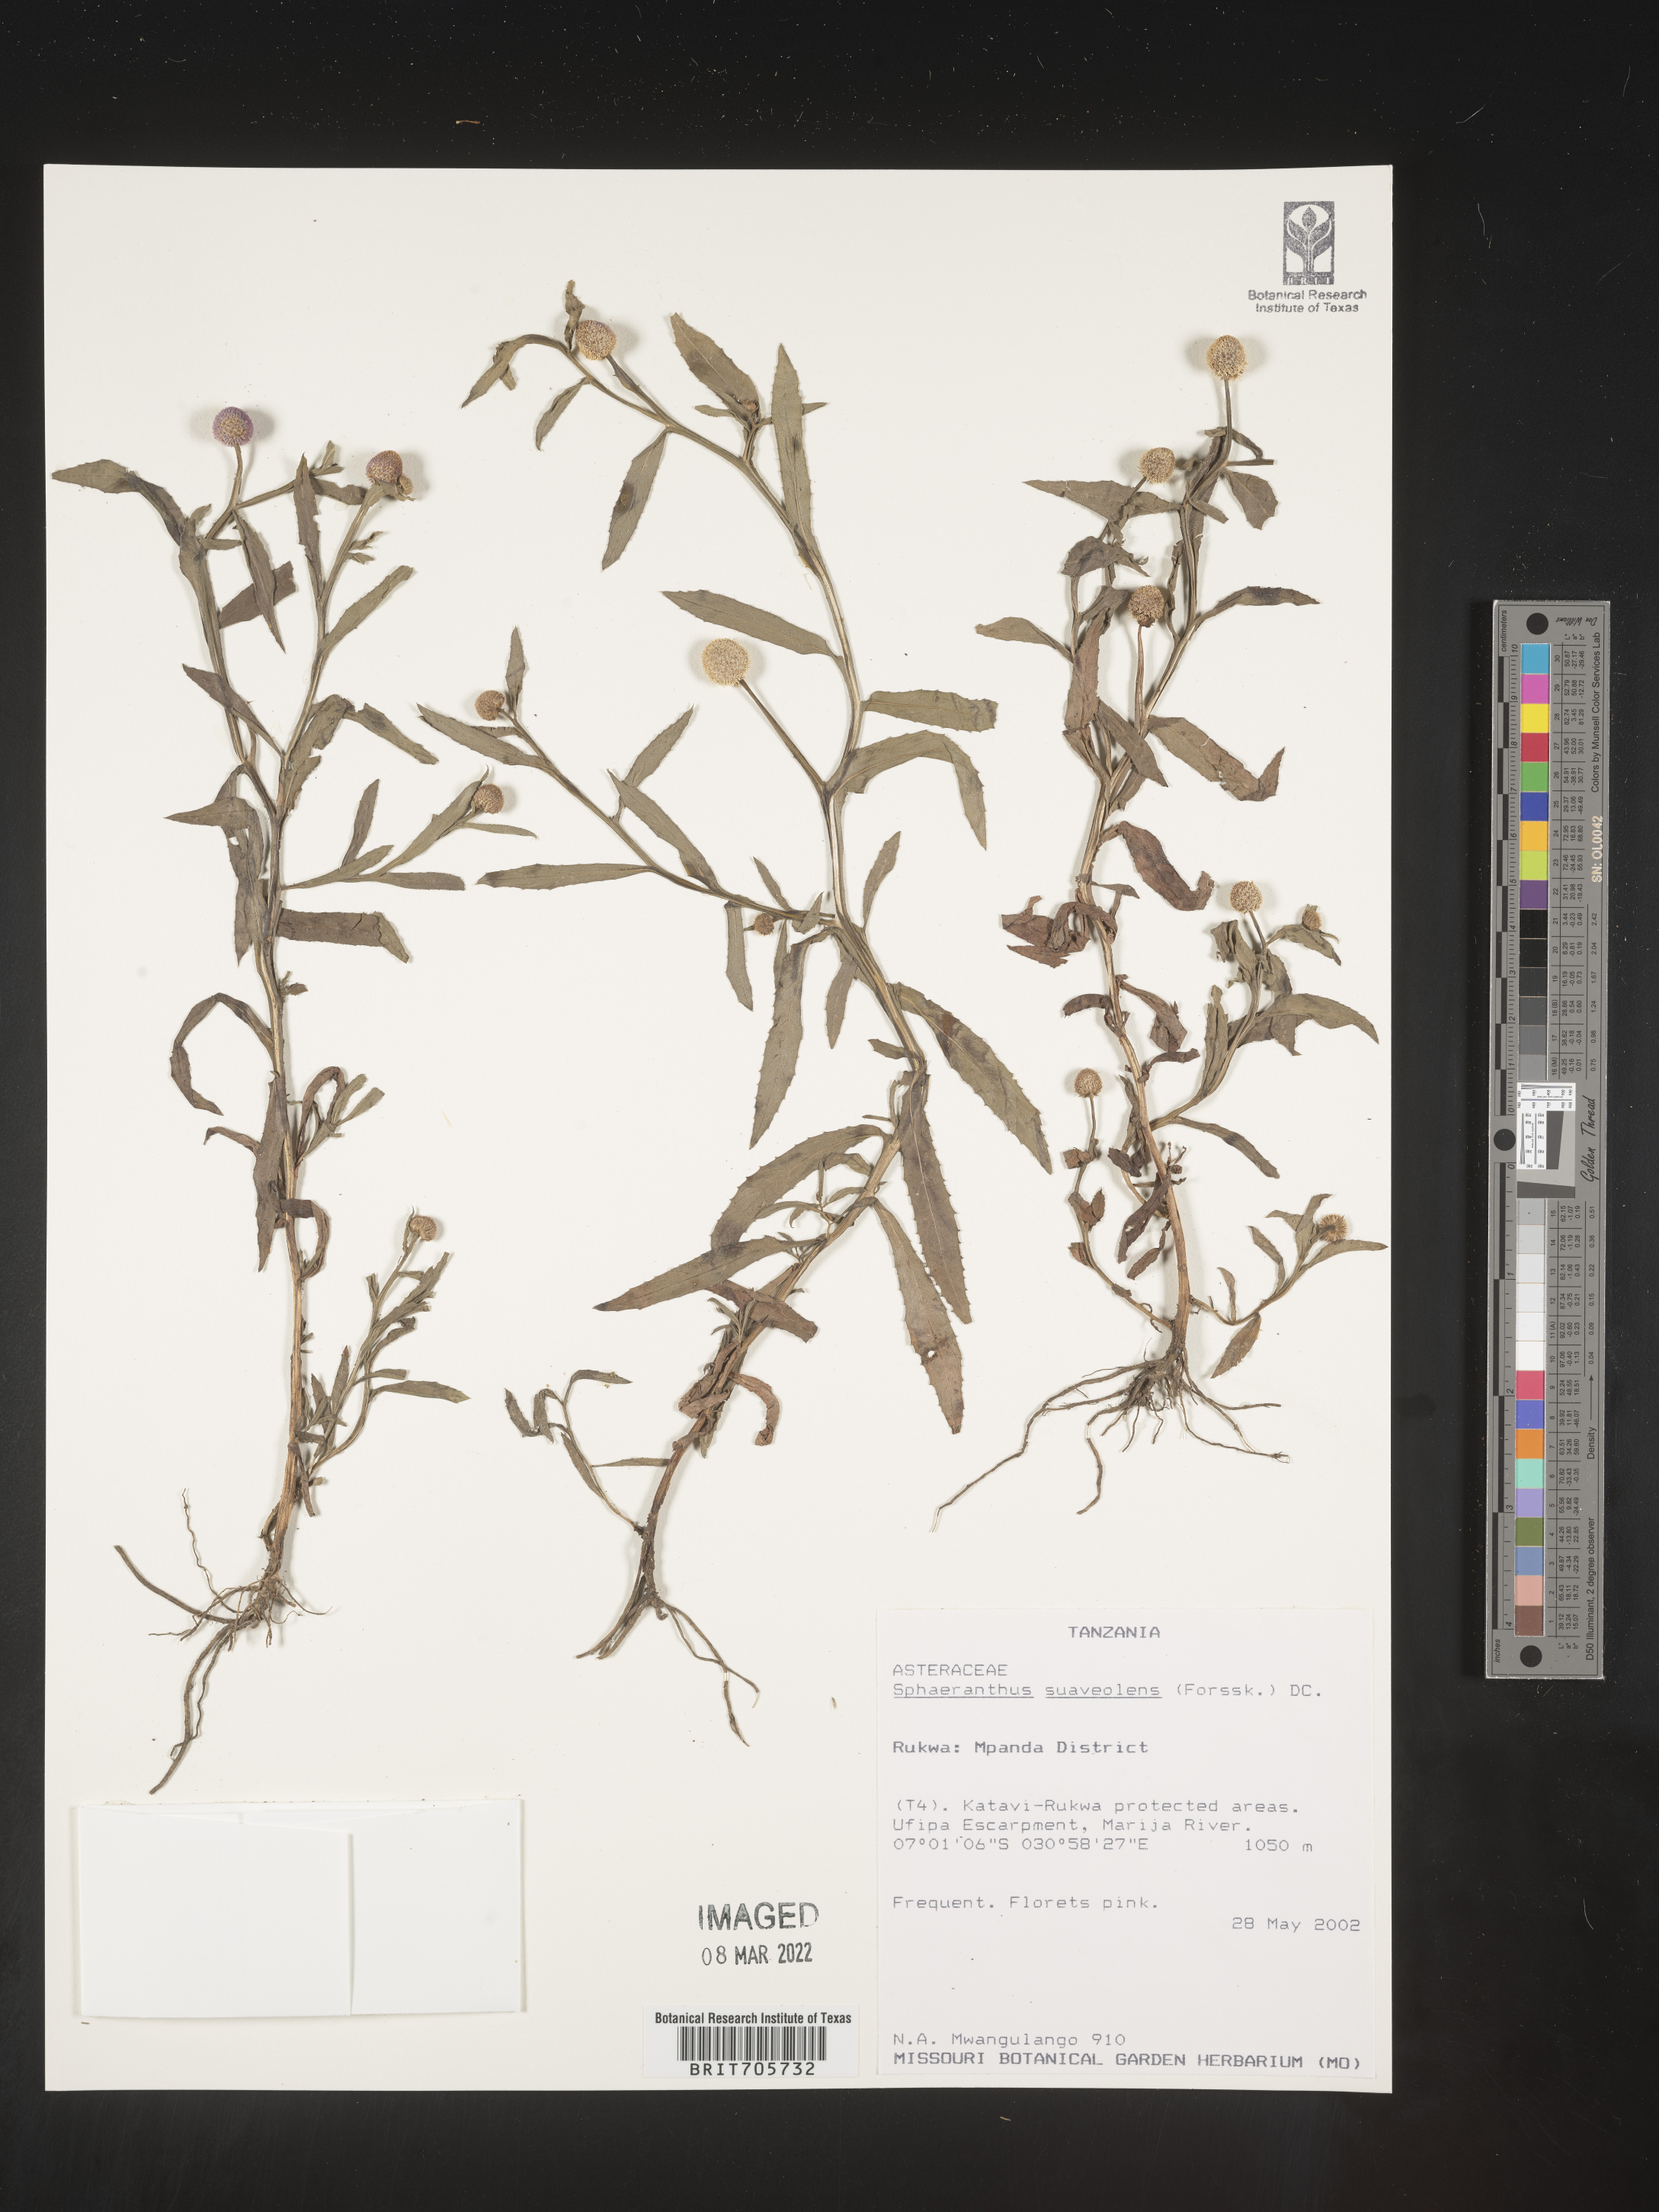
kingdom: Plantae
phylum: Tracheophyta
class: Magnoliopsida
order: Asterales
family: Asteraceae
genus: Sphaeranthus
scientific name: Sphaeranthus
